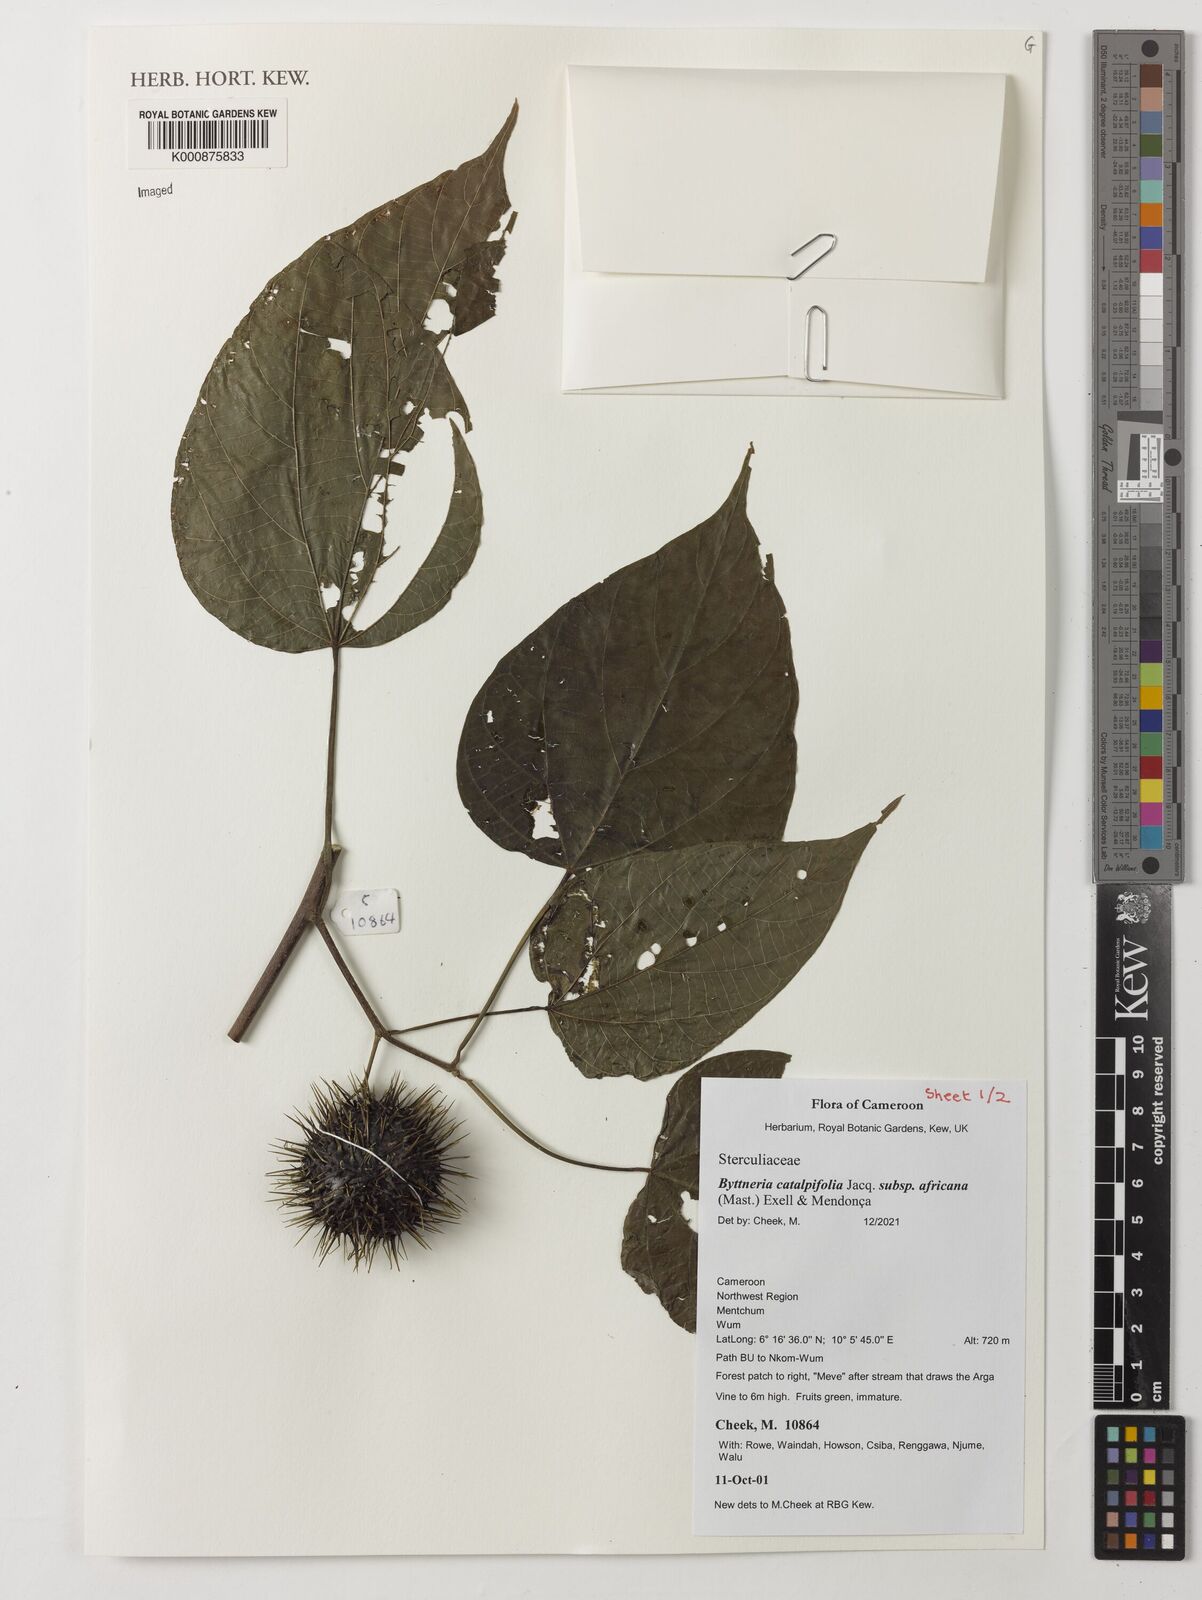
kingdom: Plantae
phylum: Tracheophyta
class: Magnoliopsida
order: Malvales
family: Malvaceae
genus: Byttneria
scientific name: Byttneria catalpifolia
